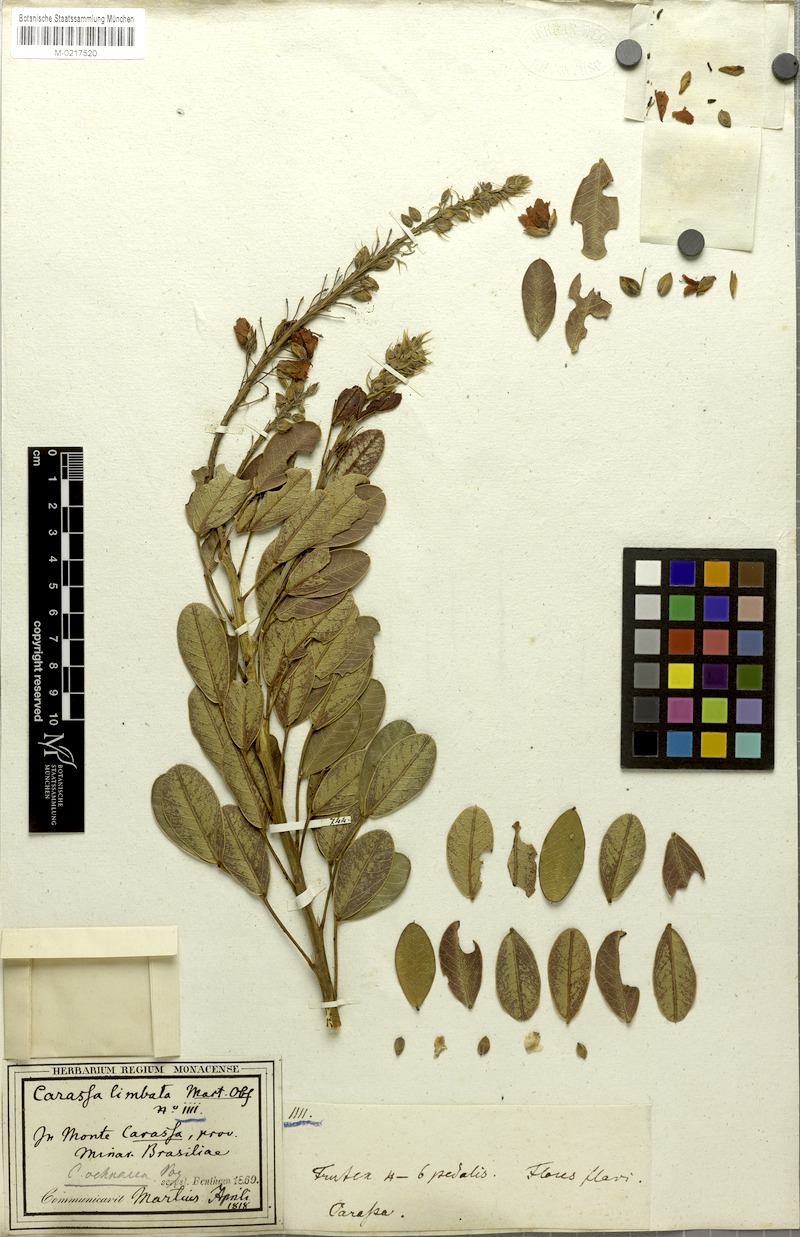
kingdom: Plantae
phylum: Tracheophyta
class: Magnoliopsida
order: Fabales
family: Fabaceae
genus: Chamaecrista
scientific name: Chamaecrista ochnacea
